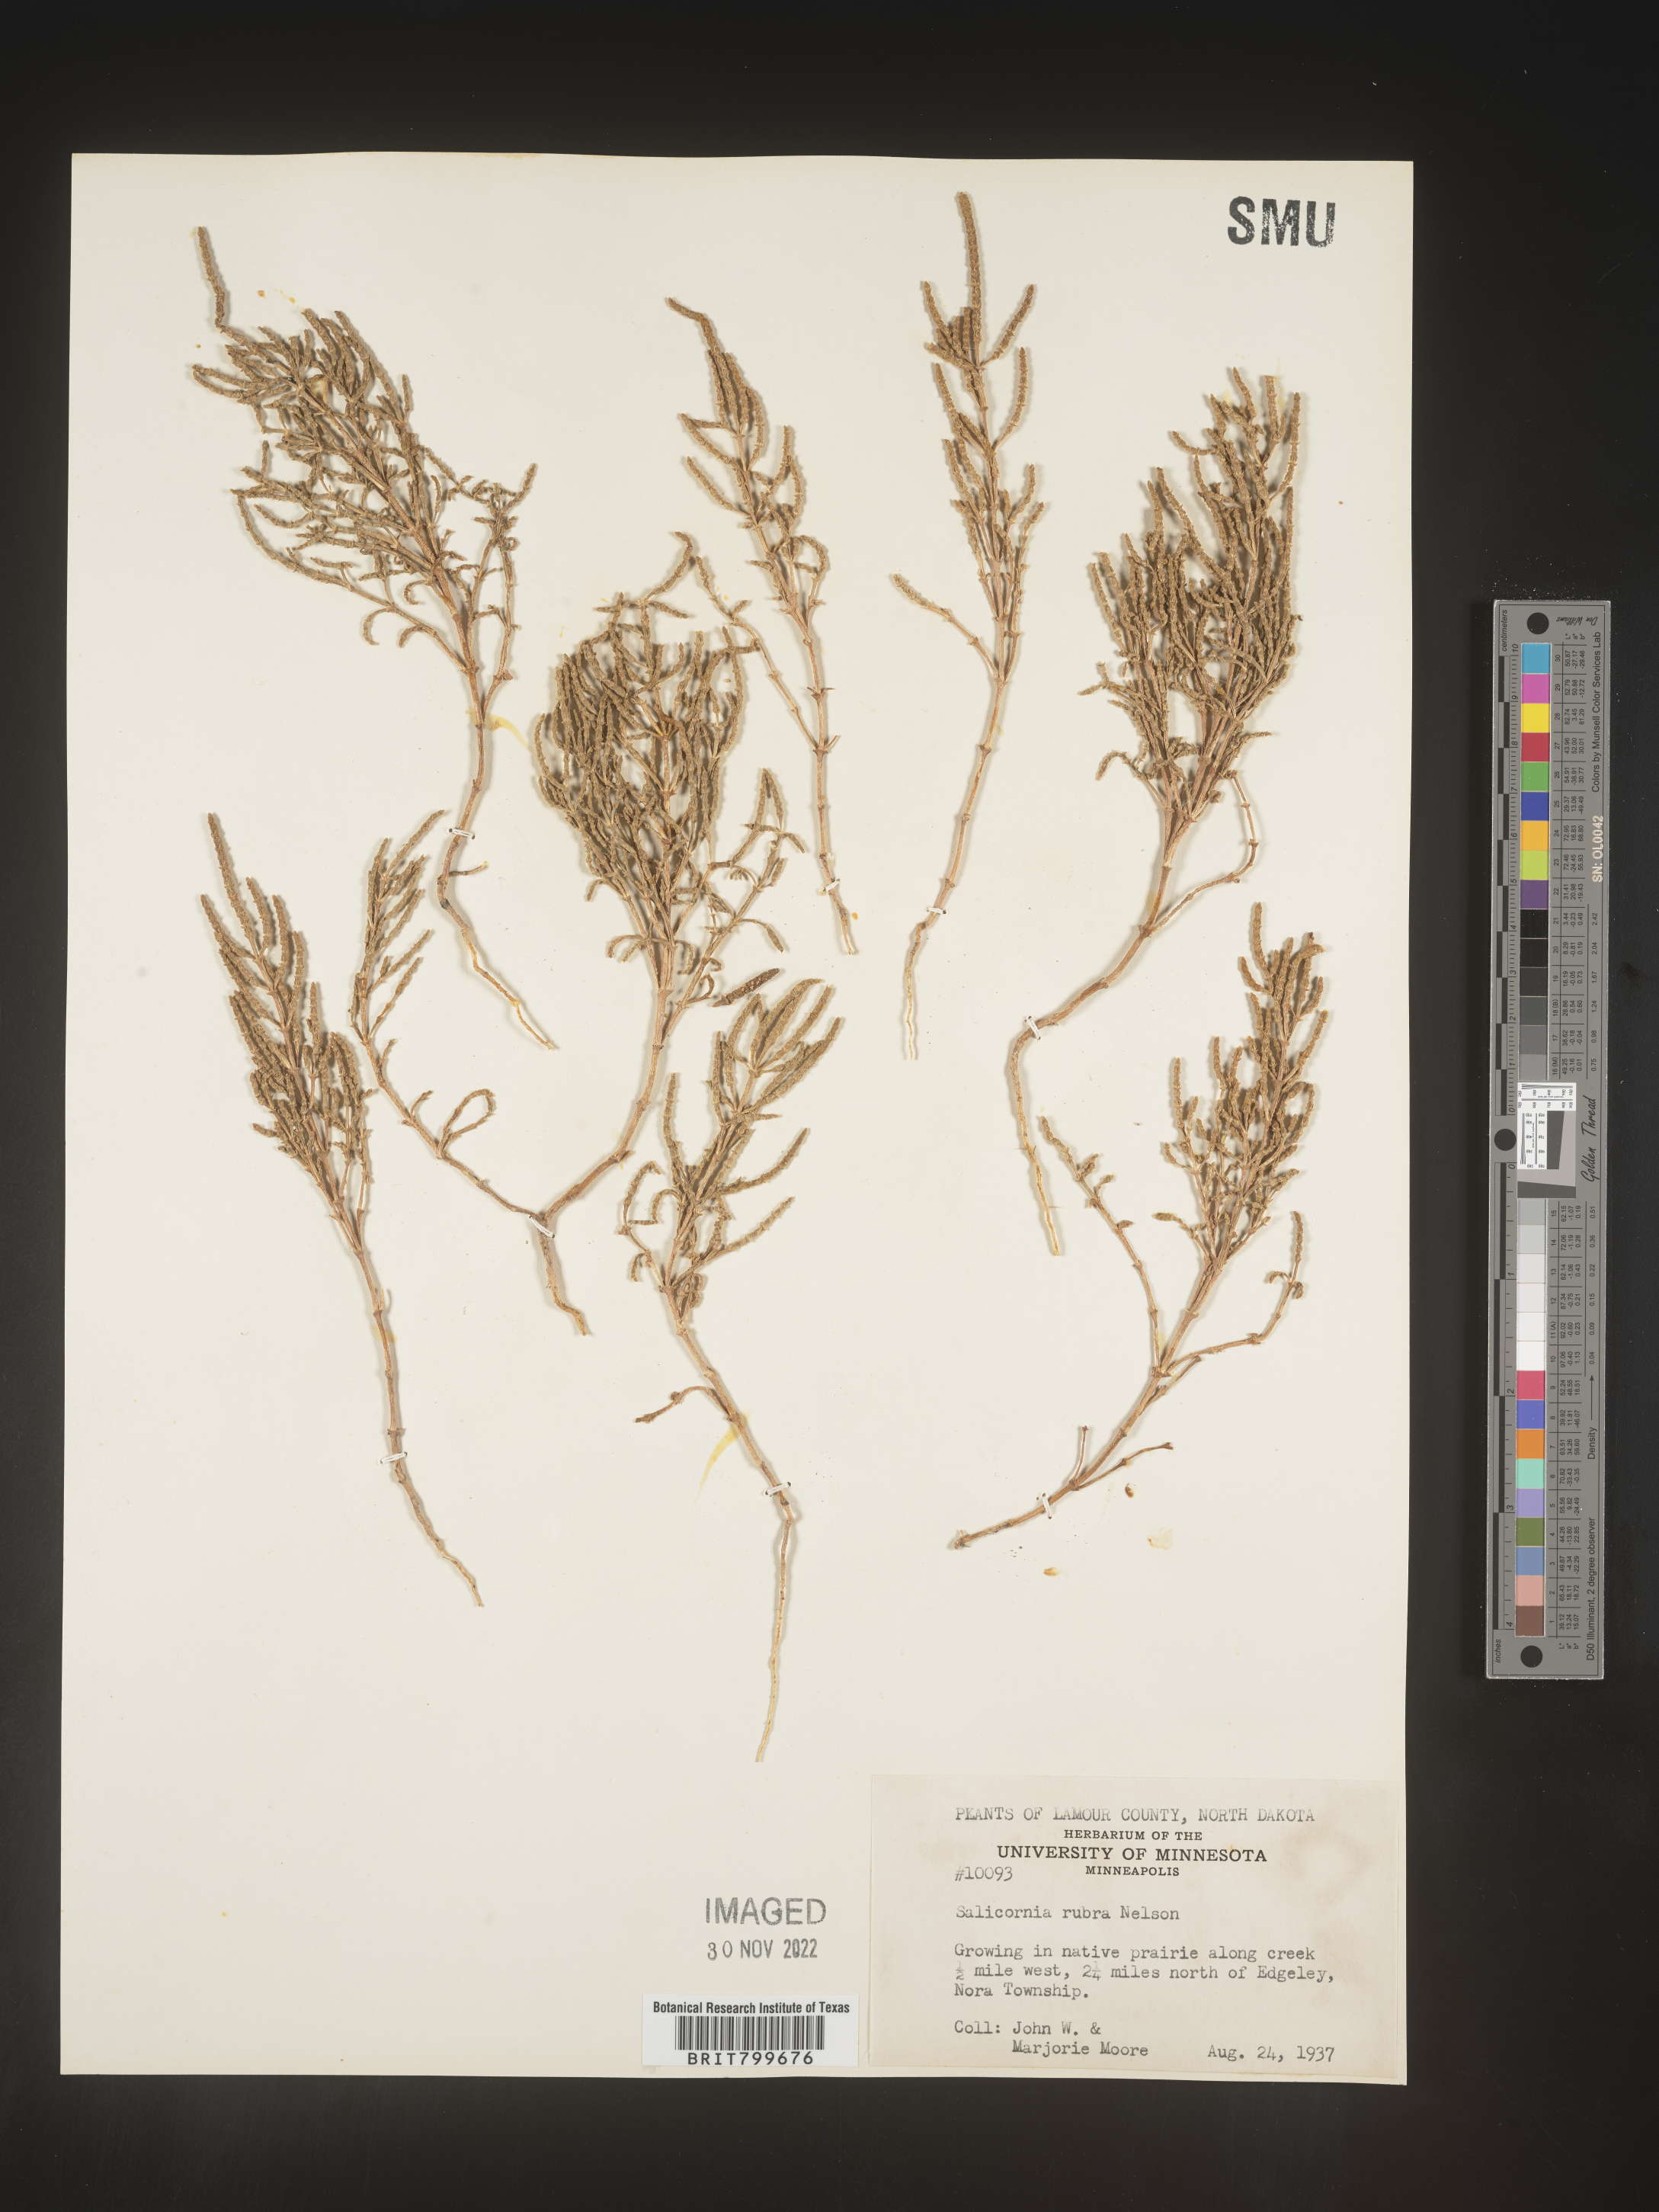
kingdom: Plantae
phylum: Tracheophyta
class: Magnoliopsida
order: Caryophyllales
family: Amaranthaceae
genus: Salicornia
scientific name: Salicornia
